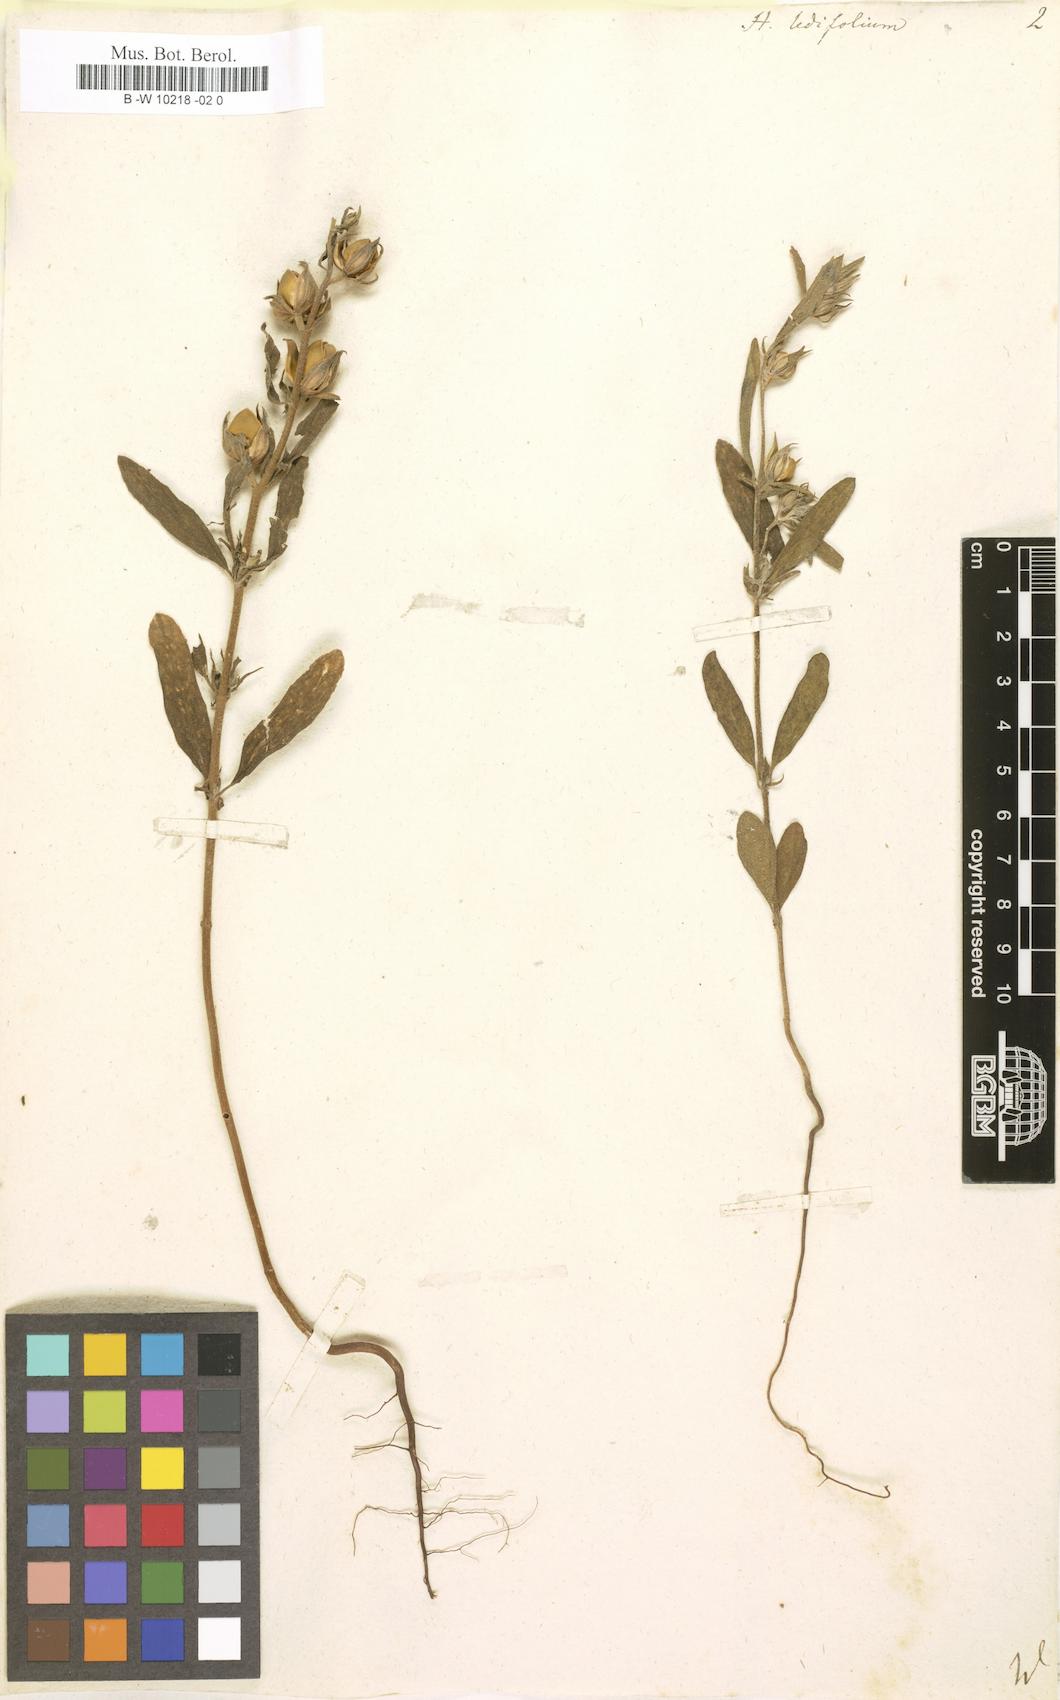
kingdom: Plantae
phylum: Tracheophyta
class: Magnoliopsida
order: Malvales
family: Cistaceae
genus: Helianthemum
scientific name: Helianthemum ledifolium
